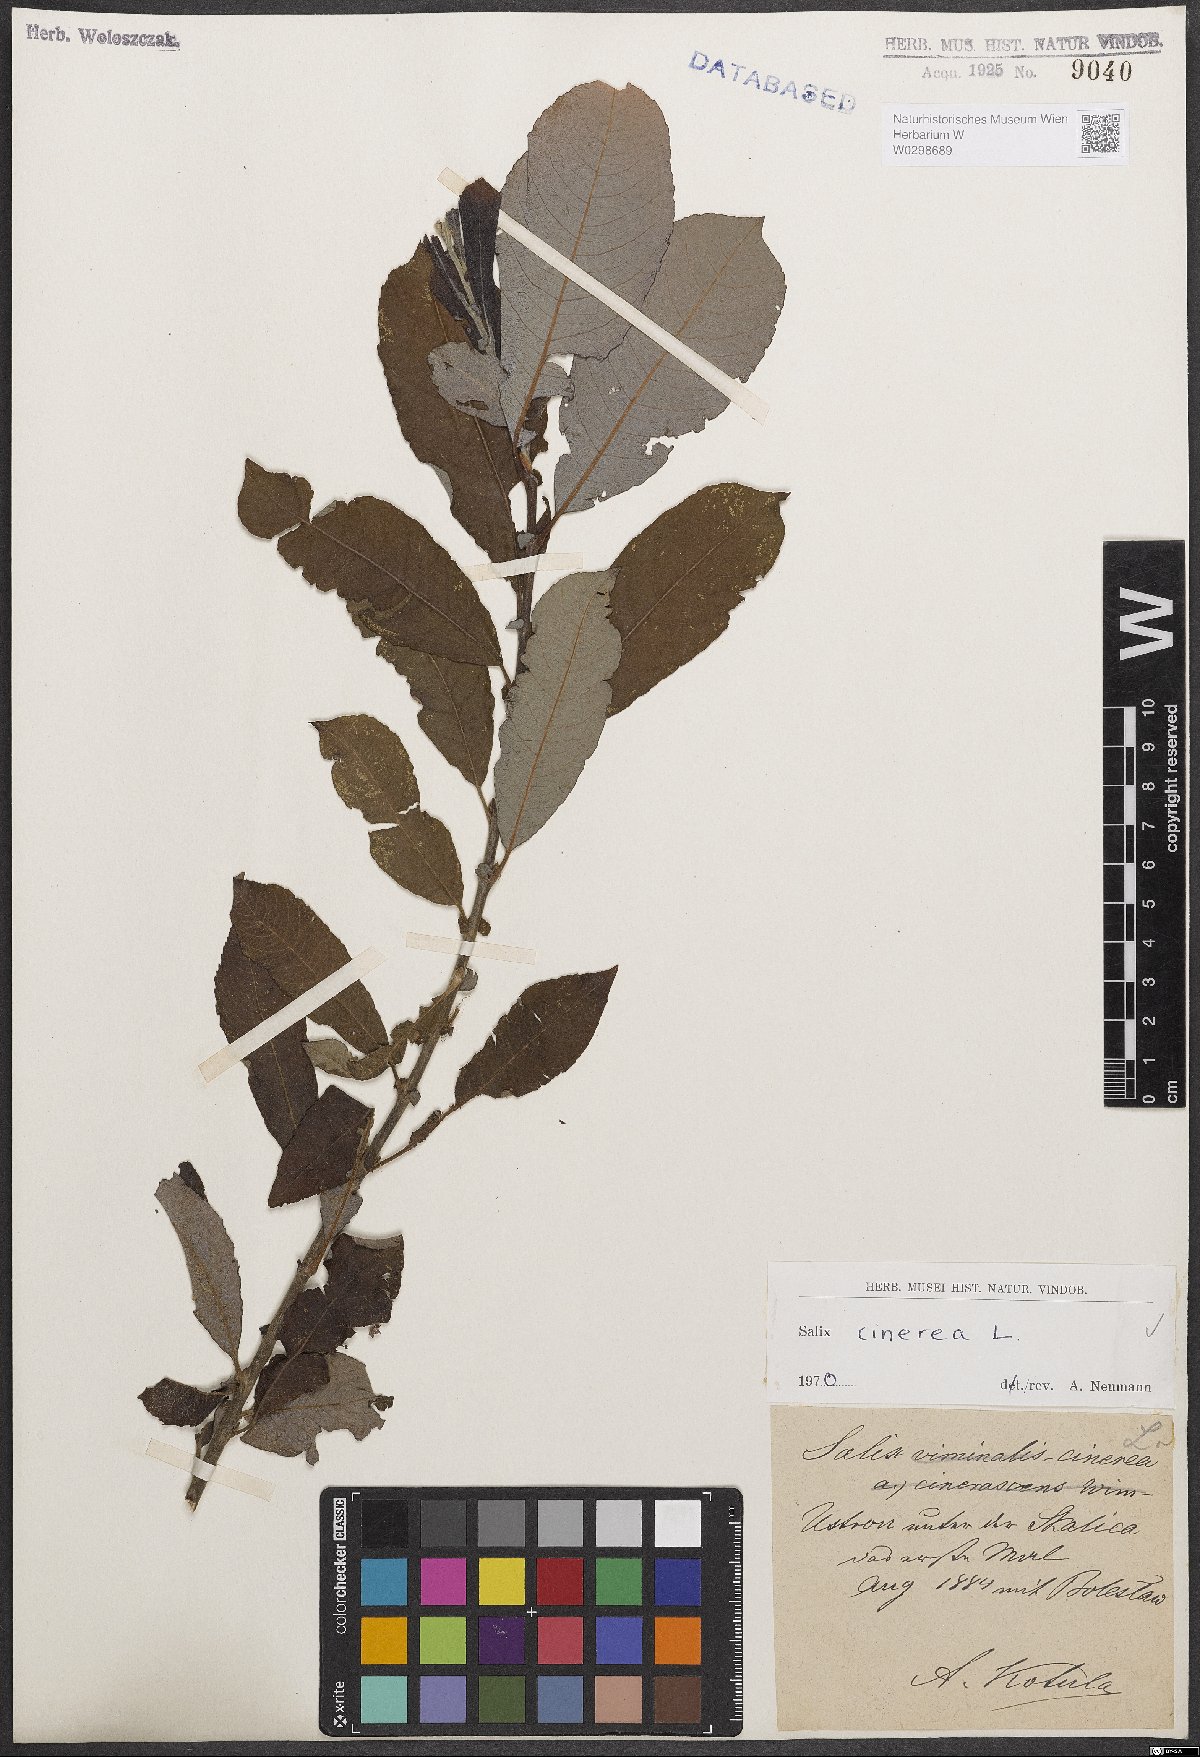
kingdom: Plantae
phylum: Tracheophyta
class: Magnoliopsida
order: Malpighiales
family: Salicaceae
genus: Salix
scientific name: Salix cinerea
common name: Common sallow
